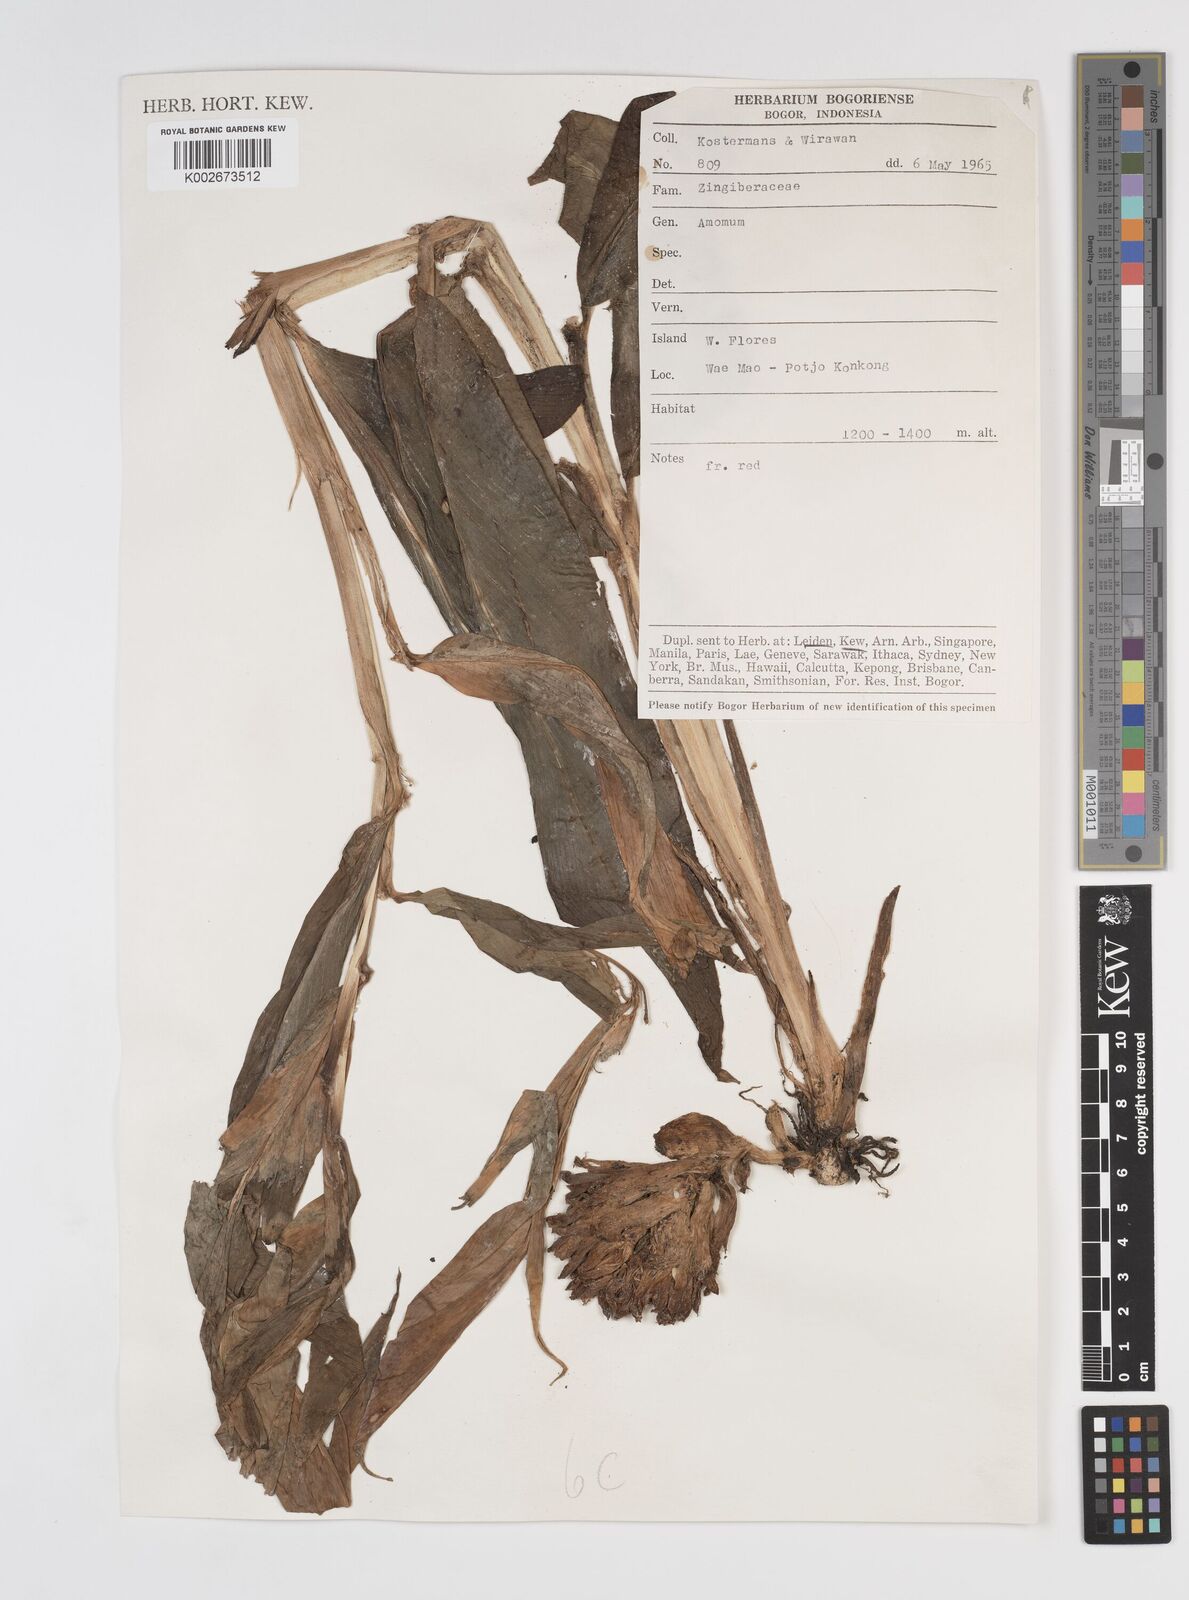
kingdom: Plantae
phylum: Tracheophyta
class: Liliopsida
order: Zingiberales
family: Zingiberaceae
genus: Amomum
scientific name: Amomum
